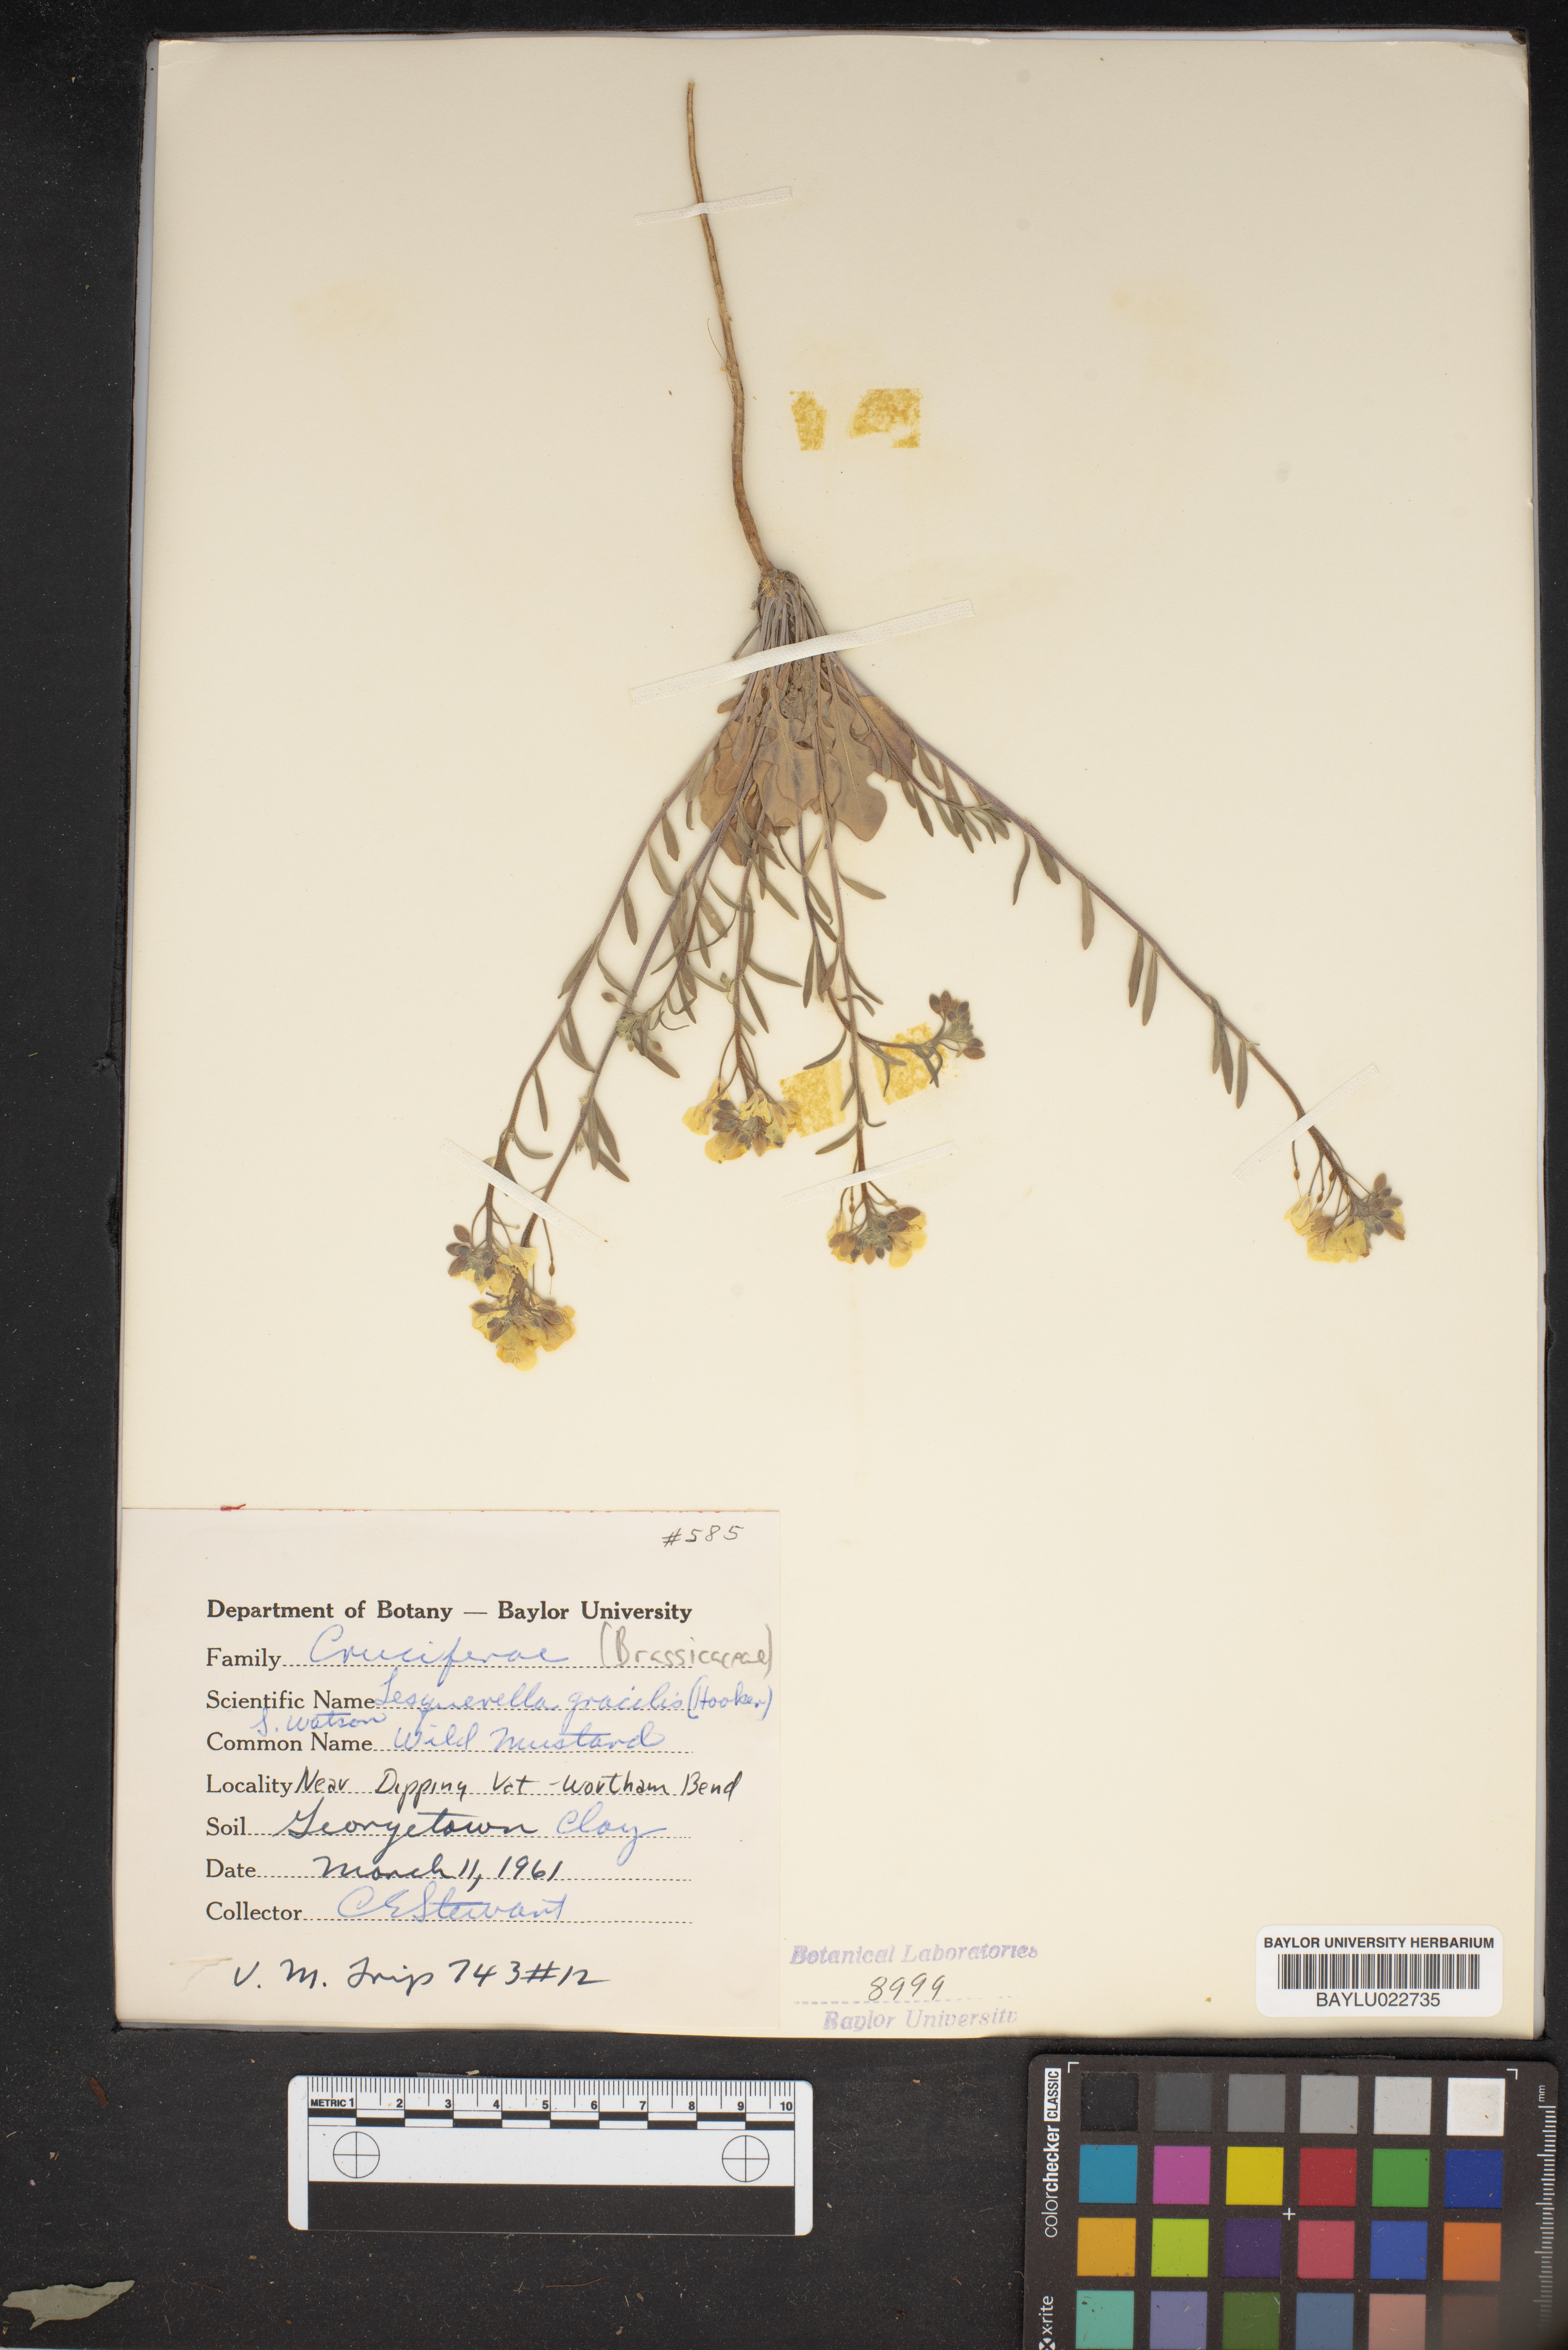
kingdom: Plantae
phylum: Tracheophyta
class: Magnoliopsida
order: Brassicales
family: Brassicaceae
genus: Physaria
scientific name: Physaria gracilis
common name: Spreading bladderpod
